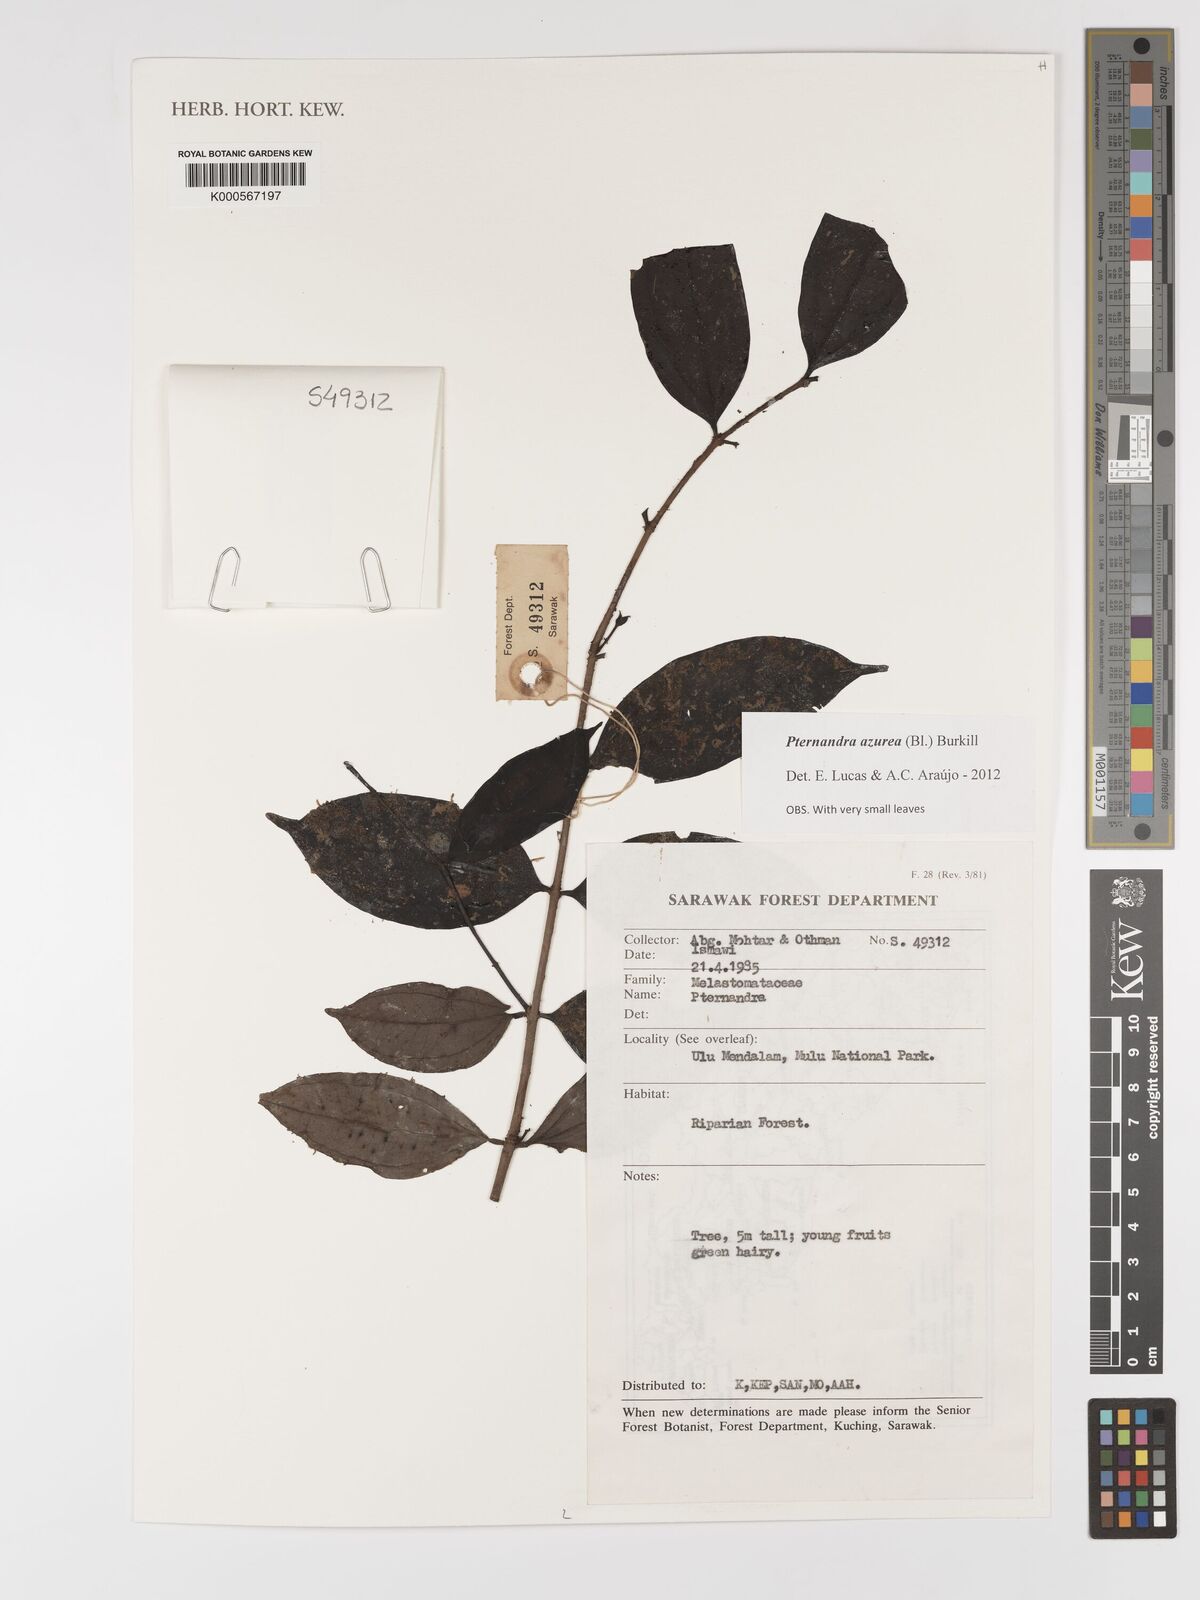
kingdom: Plantae
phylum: Tracheophyta
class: Magnoliopsida
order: Myrtales
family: Melastomataceae
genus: Pternandra
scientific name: Pternandra azurea
